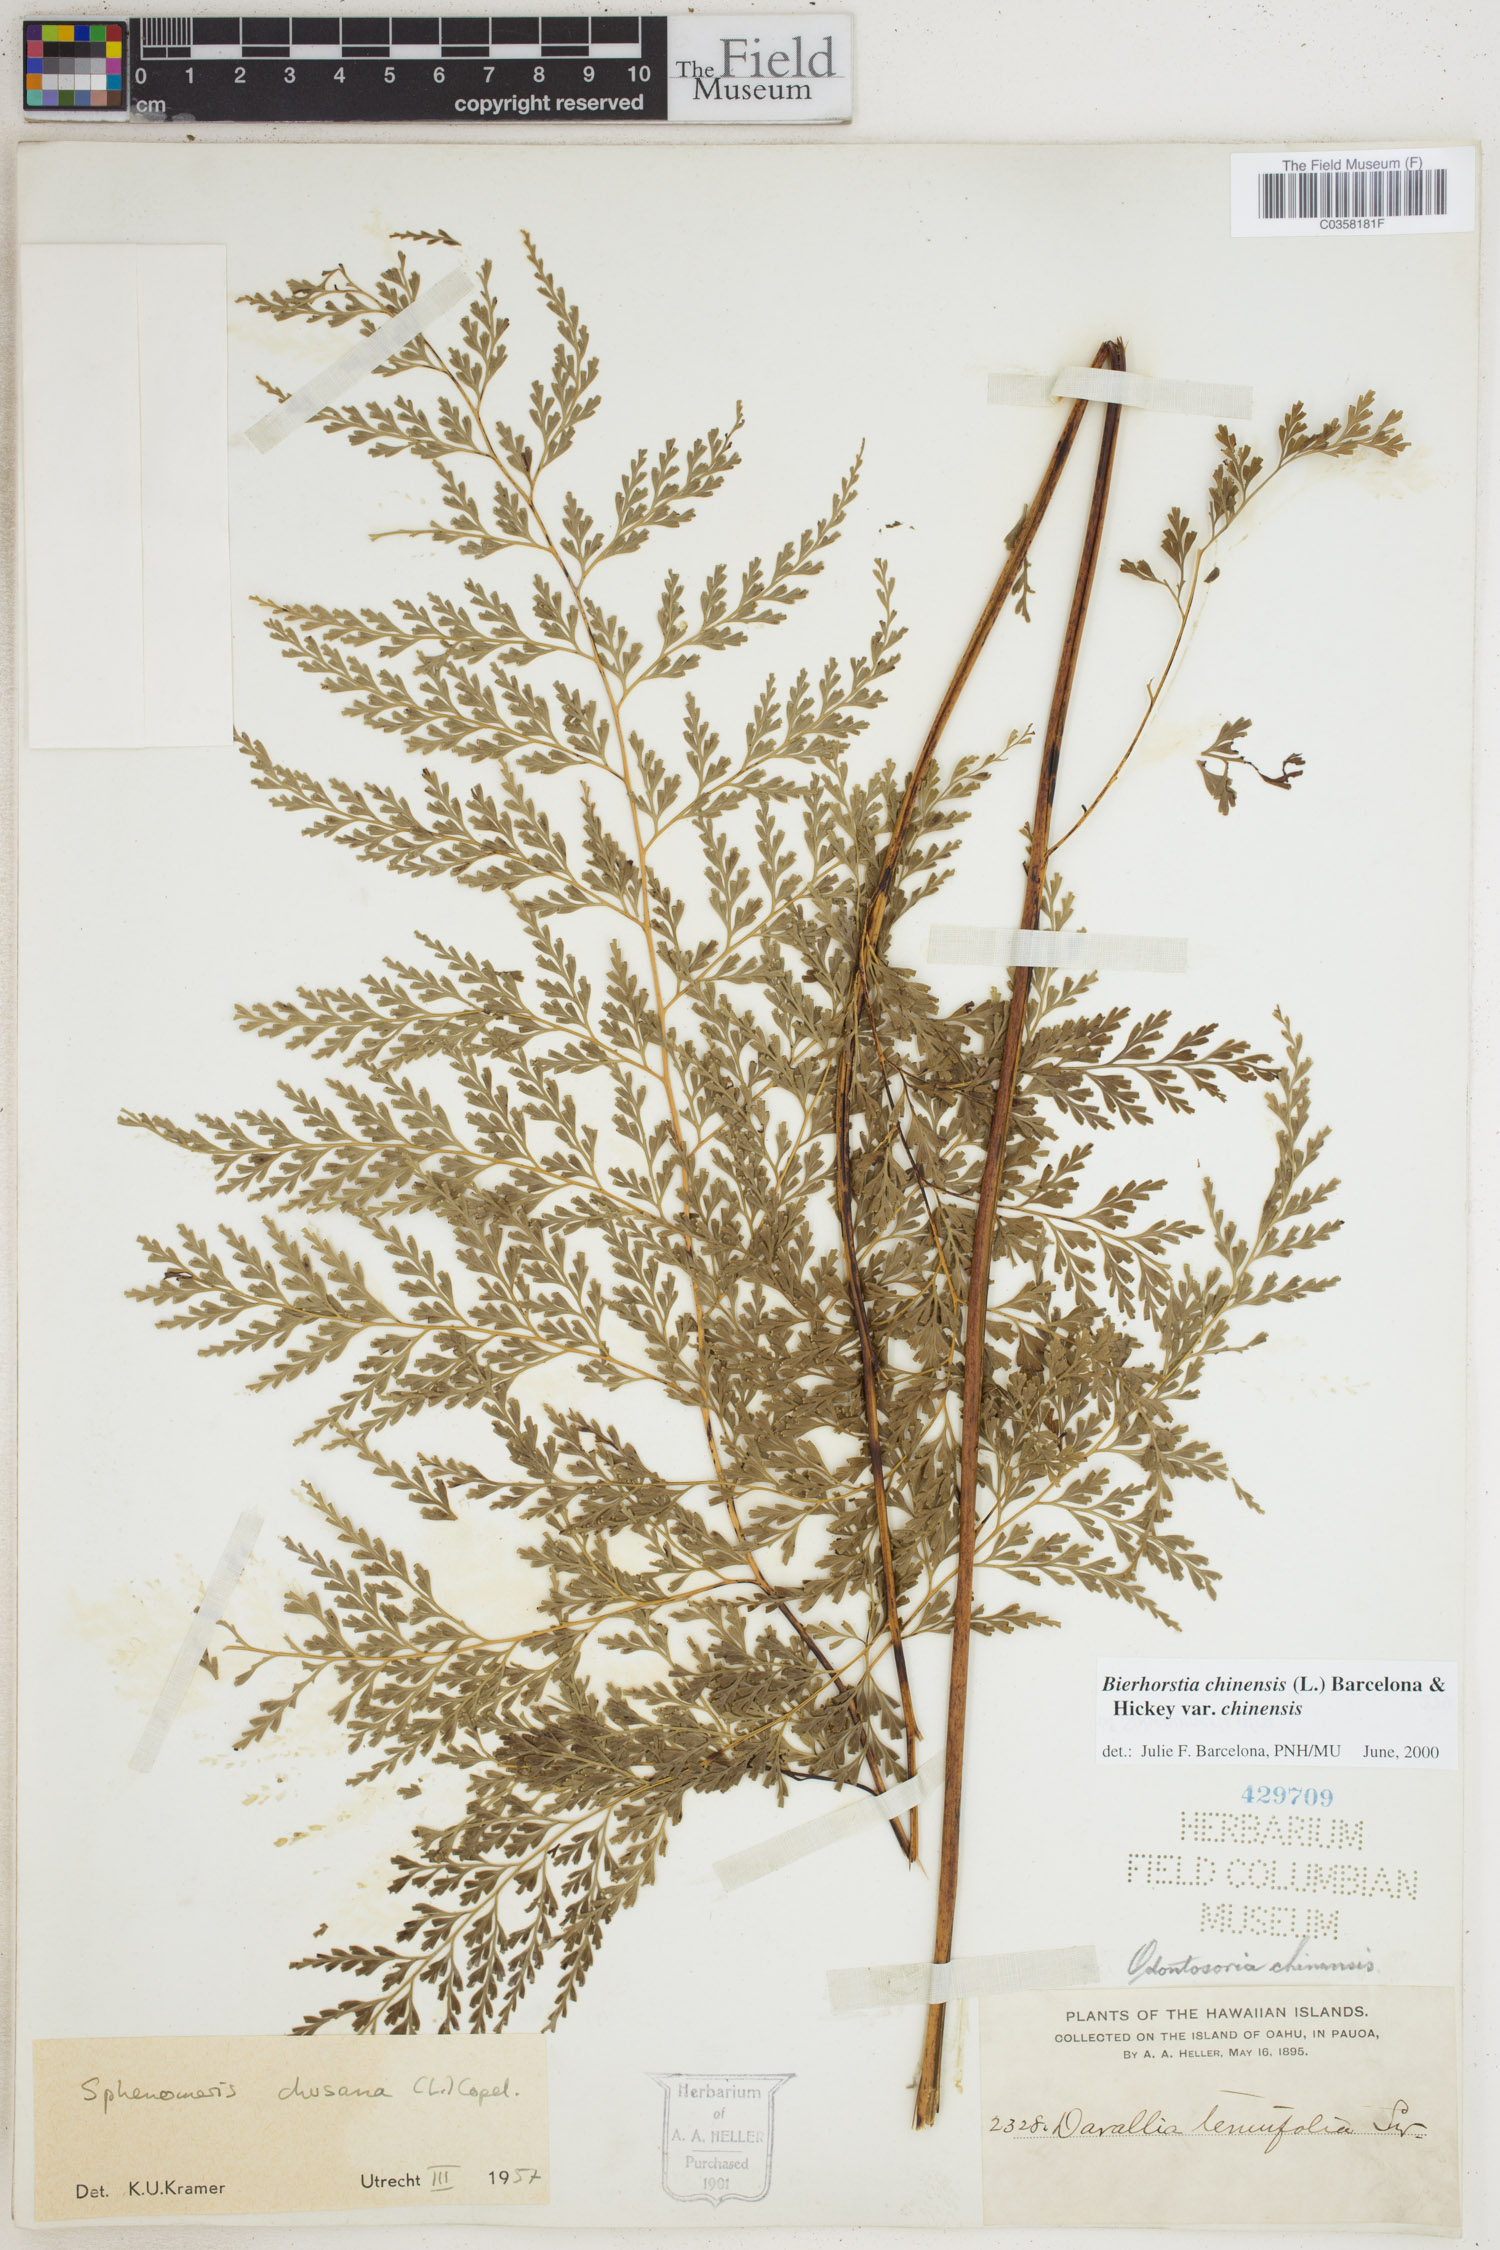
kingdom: Plantae
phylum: Tracheophyta
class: Polypodiopsida
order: Polypodiales
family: Lindsaeaceae
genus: Odontosoria
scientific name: Odontosoria chinensis
